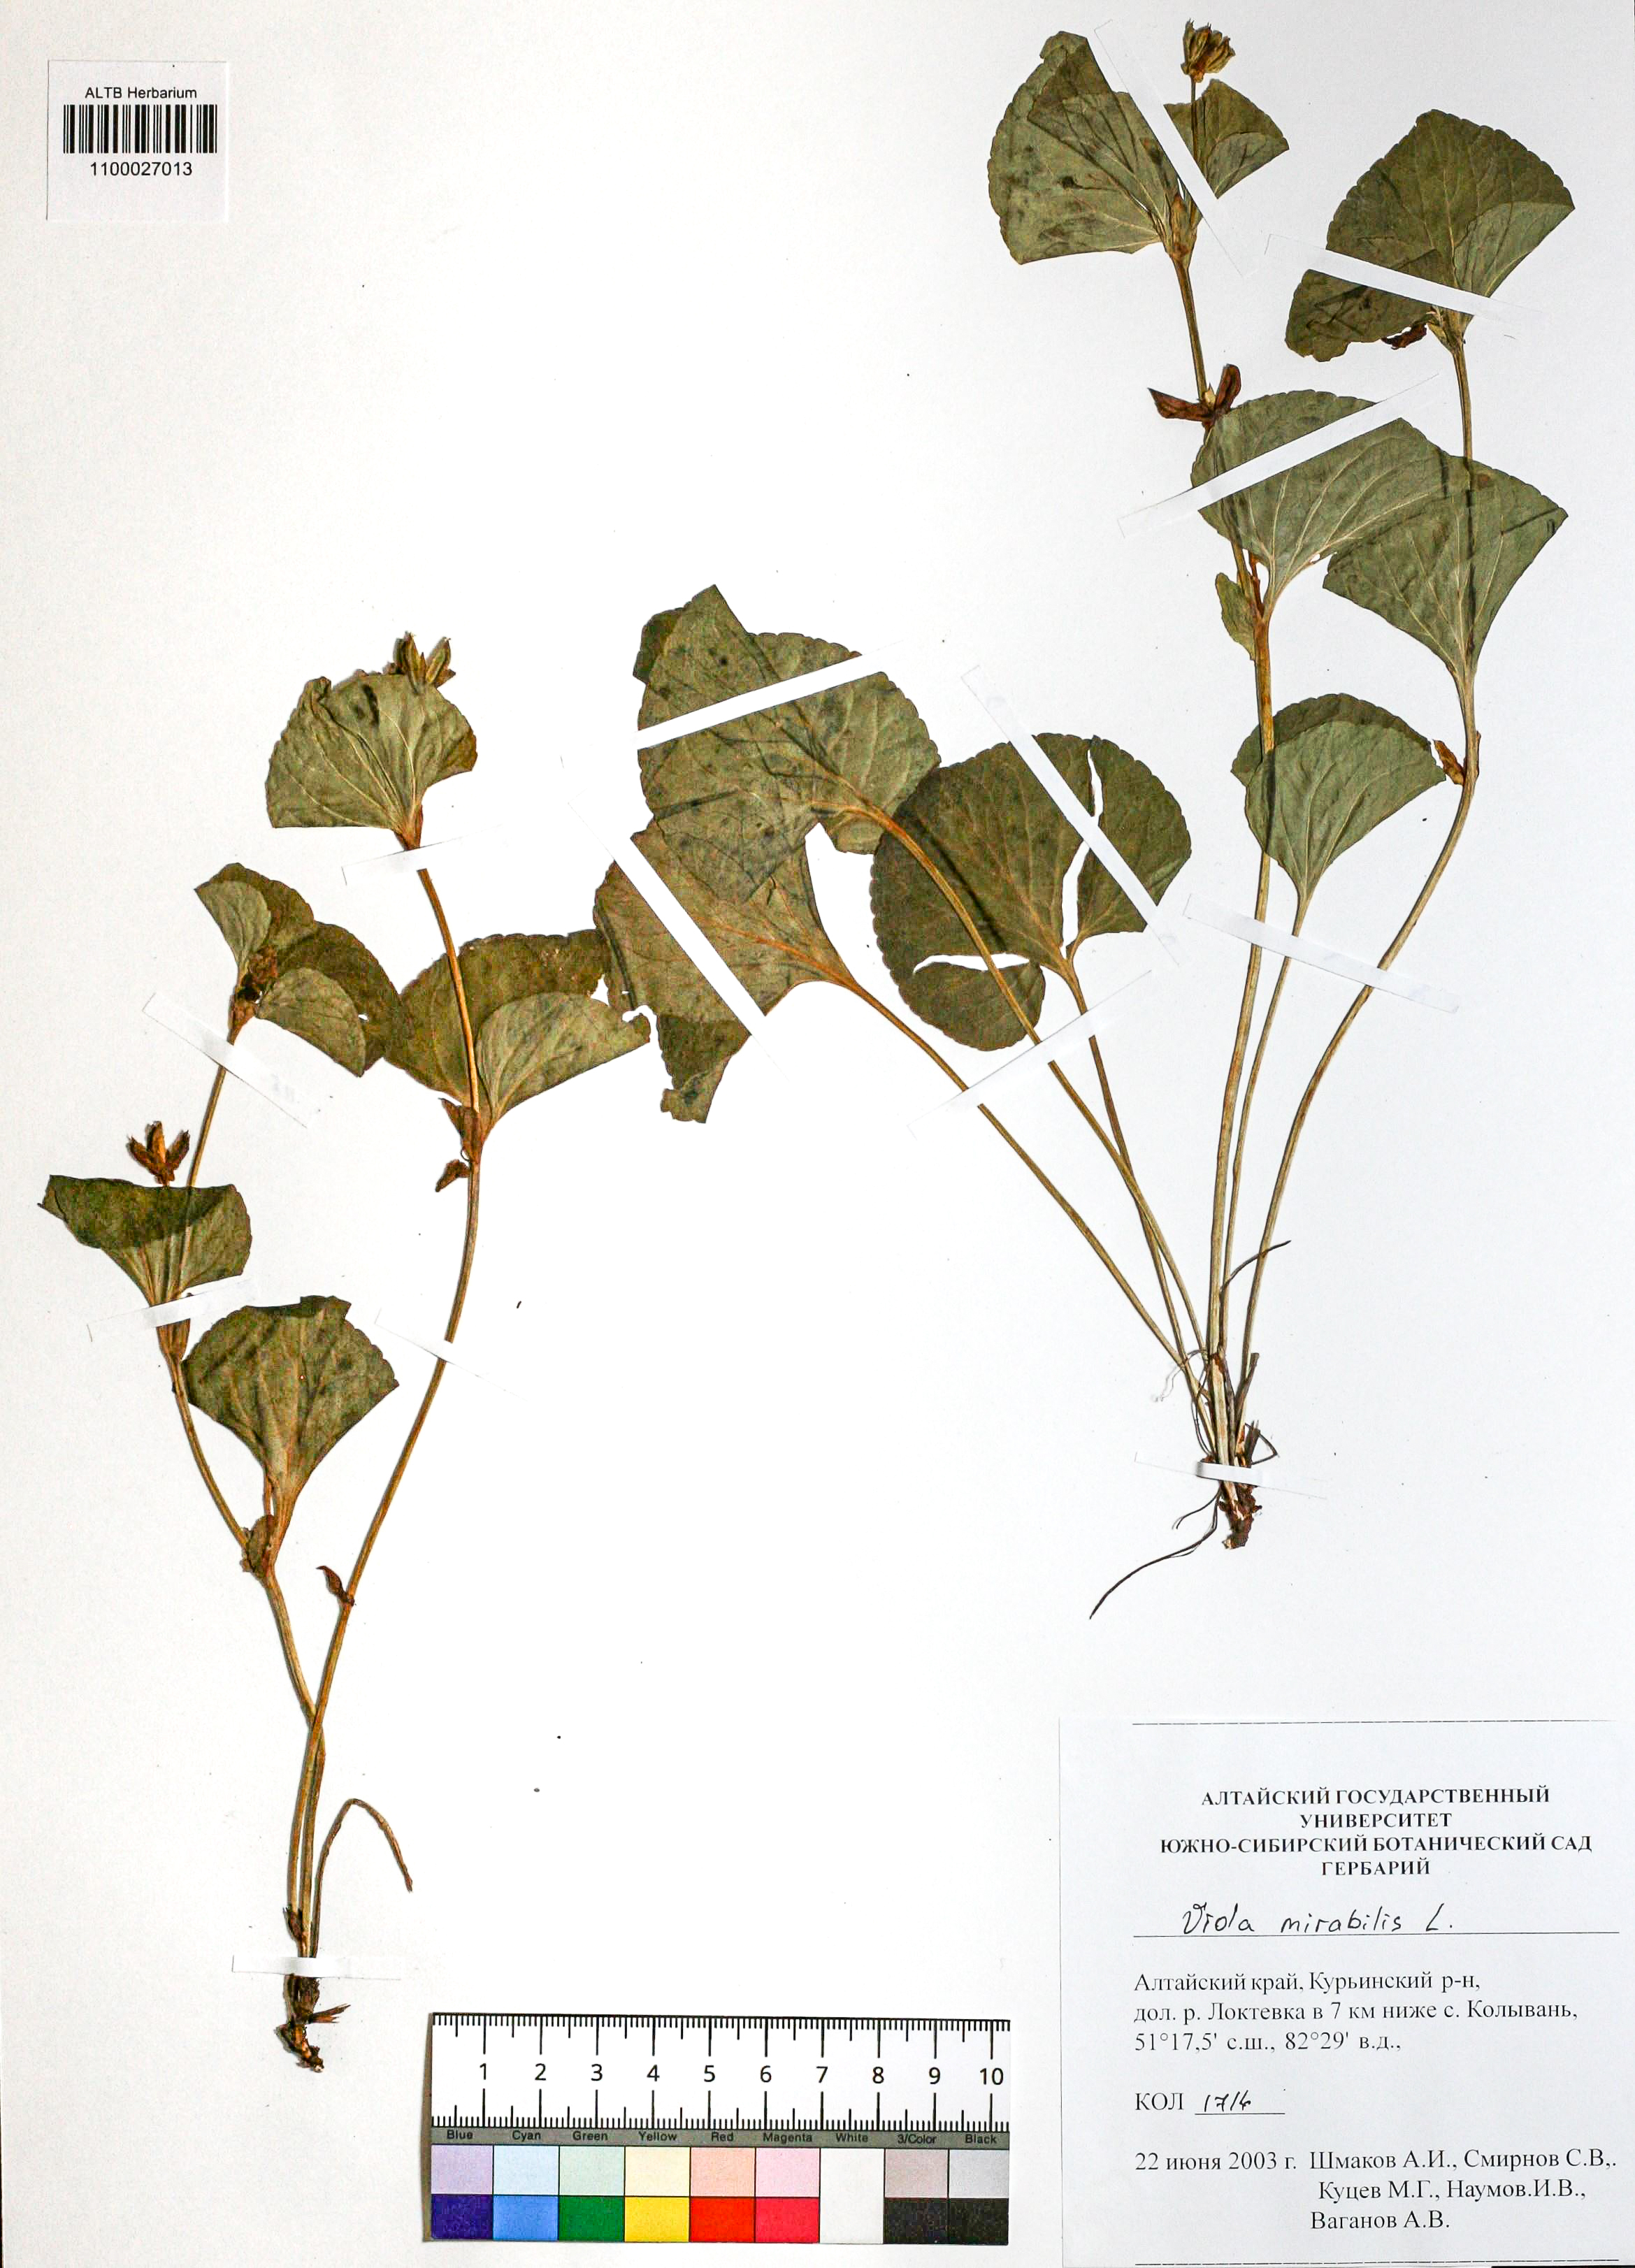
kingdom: Plantae
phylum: Tracheophyta
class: Magnoliopsida
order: Malpighiales
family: Violaceae
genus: Viola
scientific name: Viola mirabilis
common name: Wonder violet
